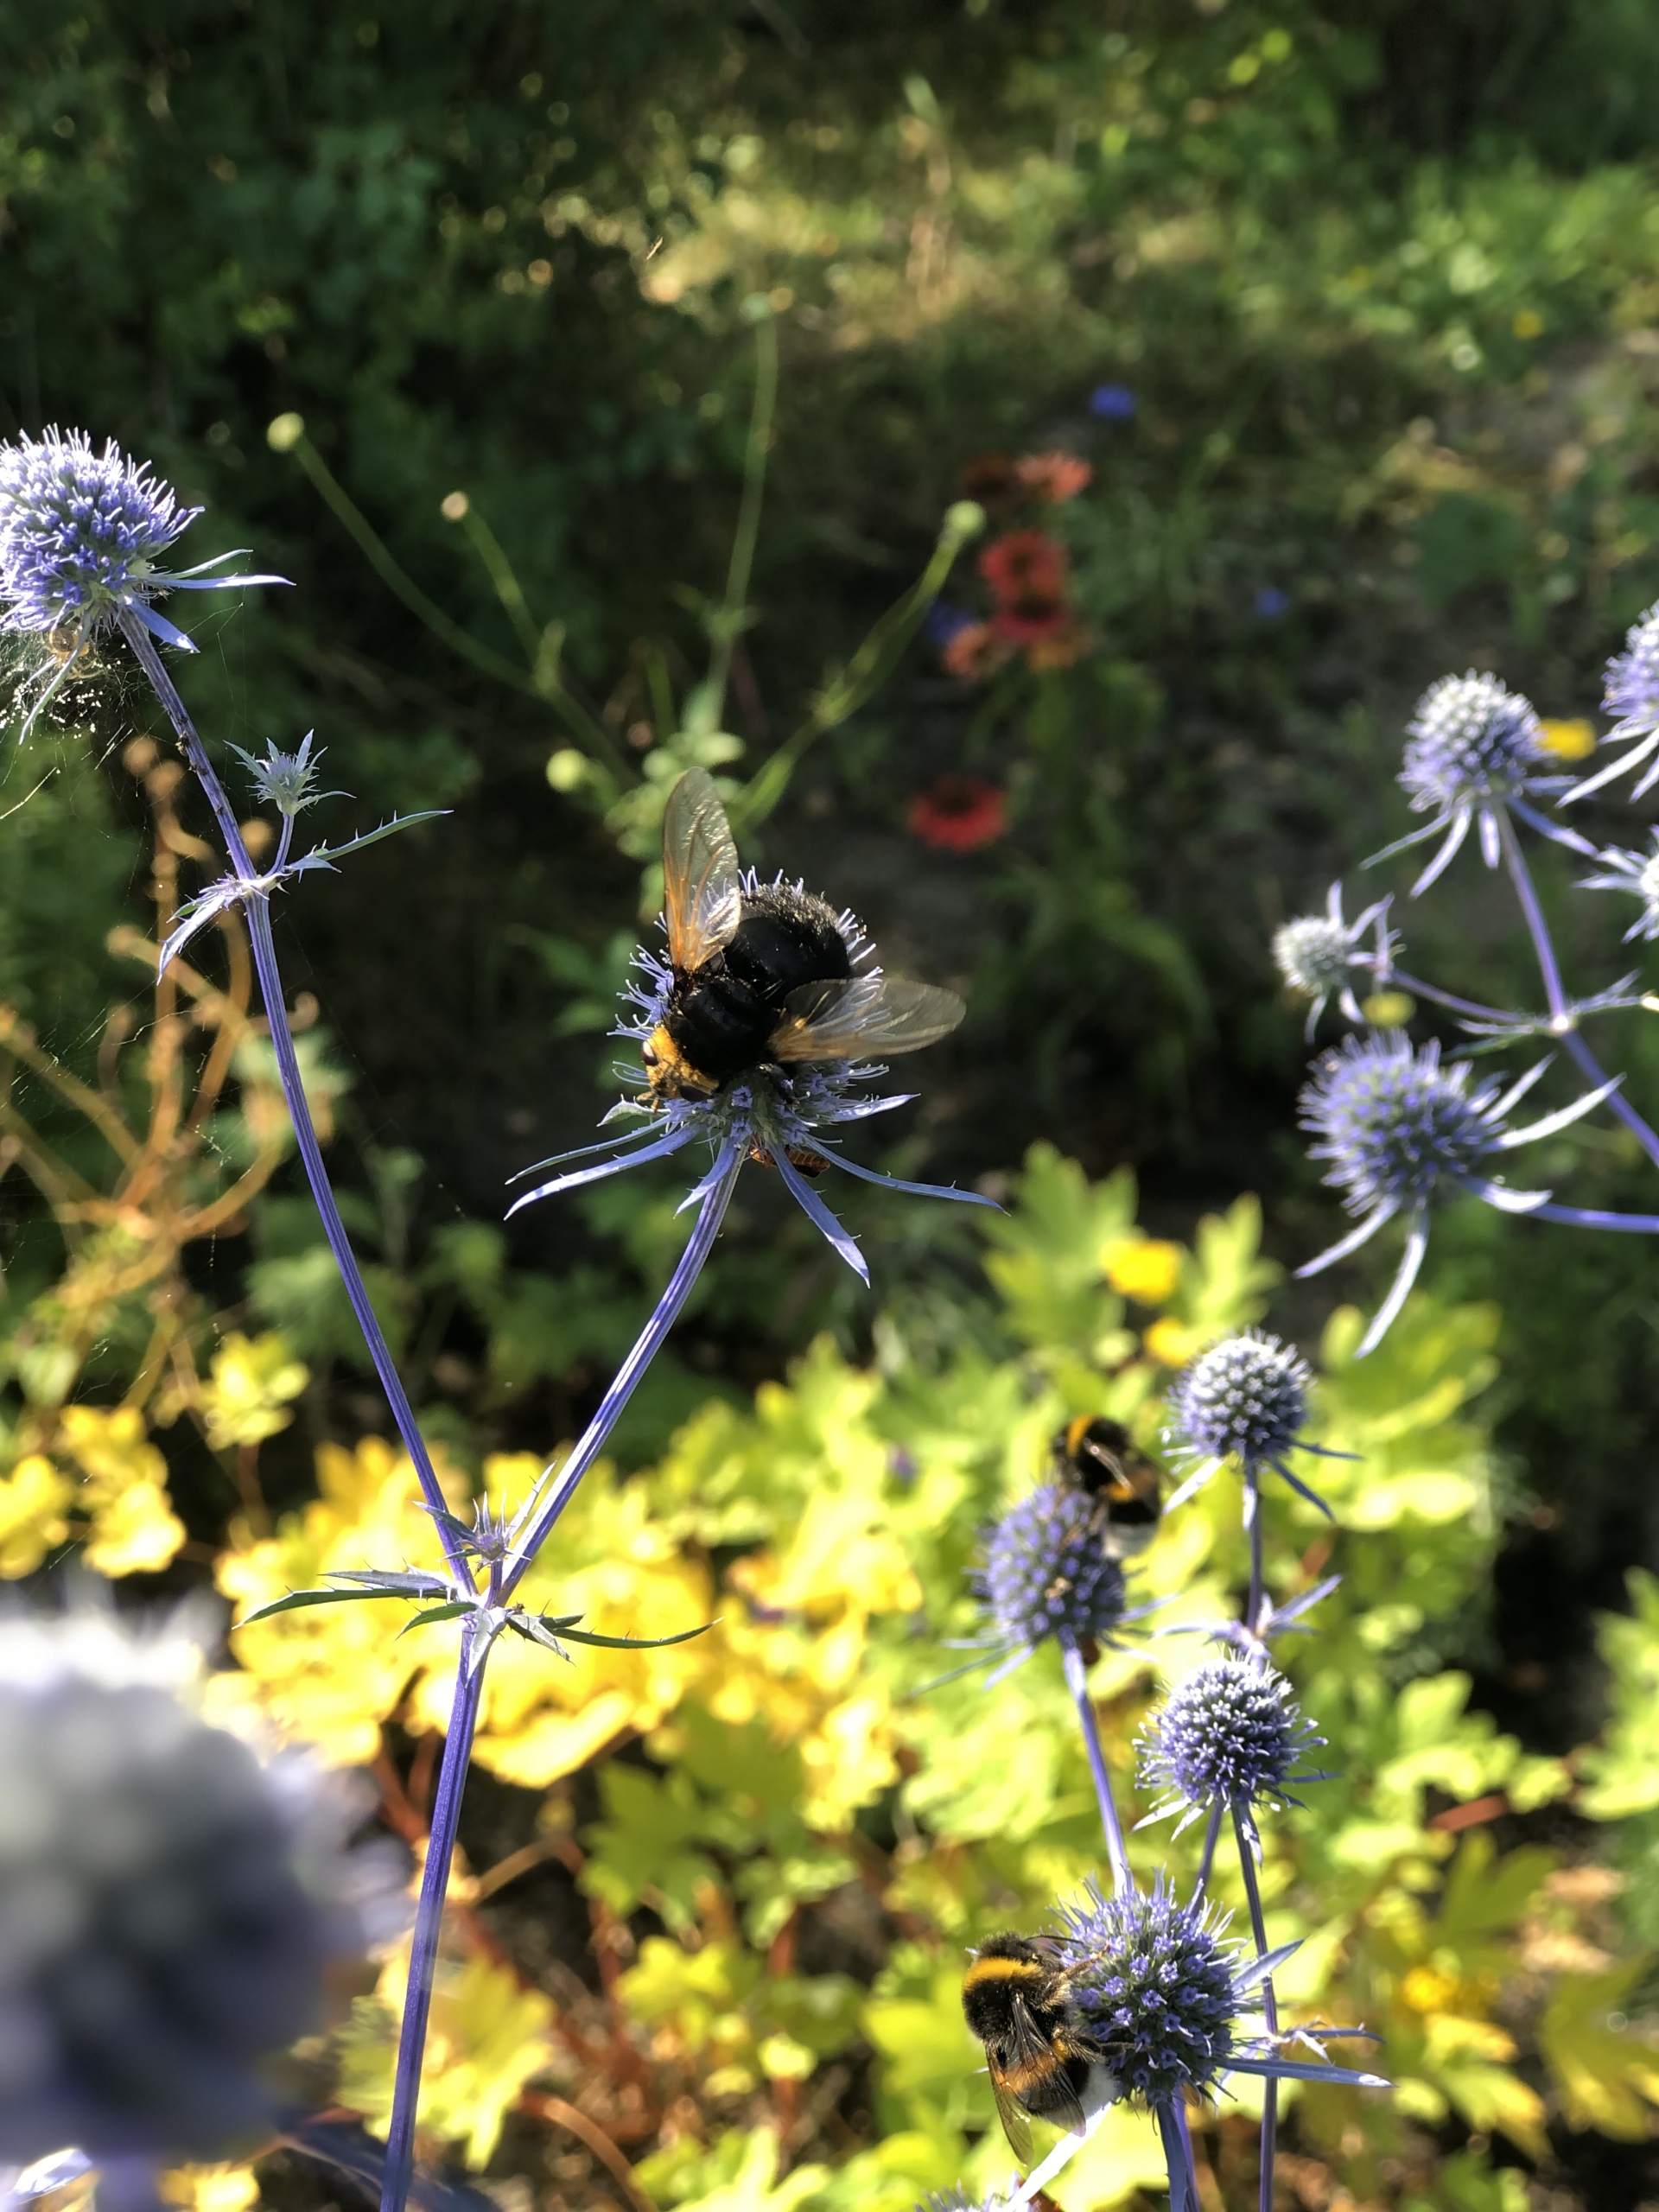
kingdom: Animalia
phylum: Arthropoda
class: Insecta
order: Diptera
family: Tachinidae
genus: Tachina
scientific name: Tachina grossa
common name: Kæmpefluen Harald
